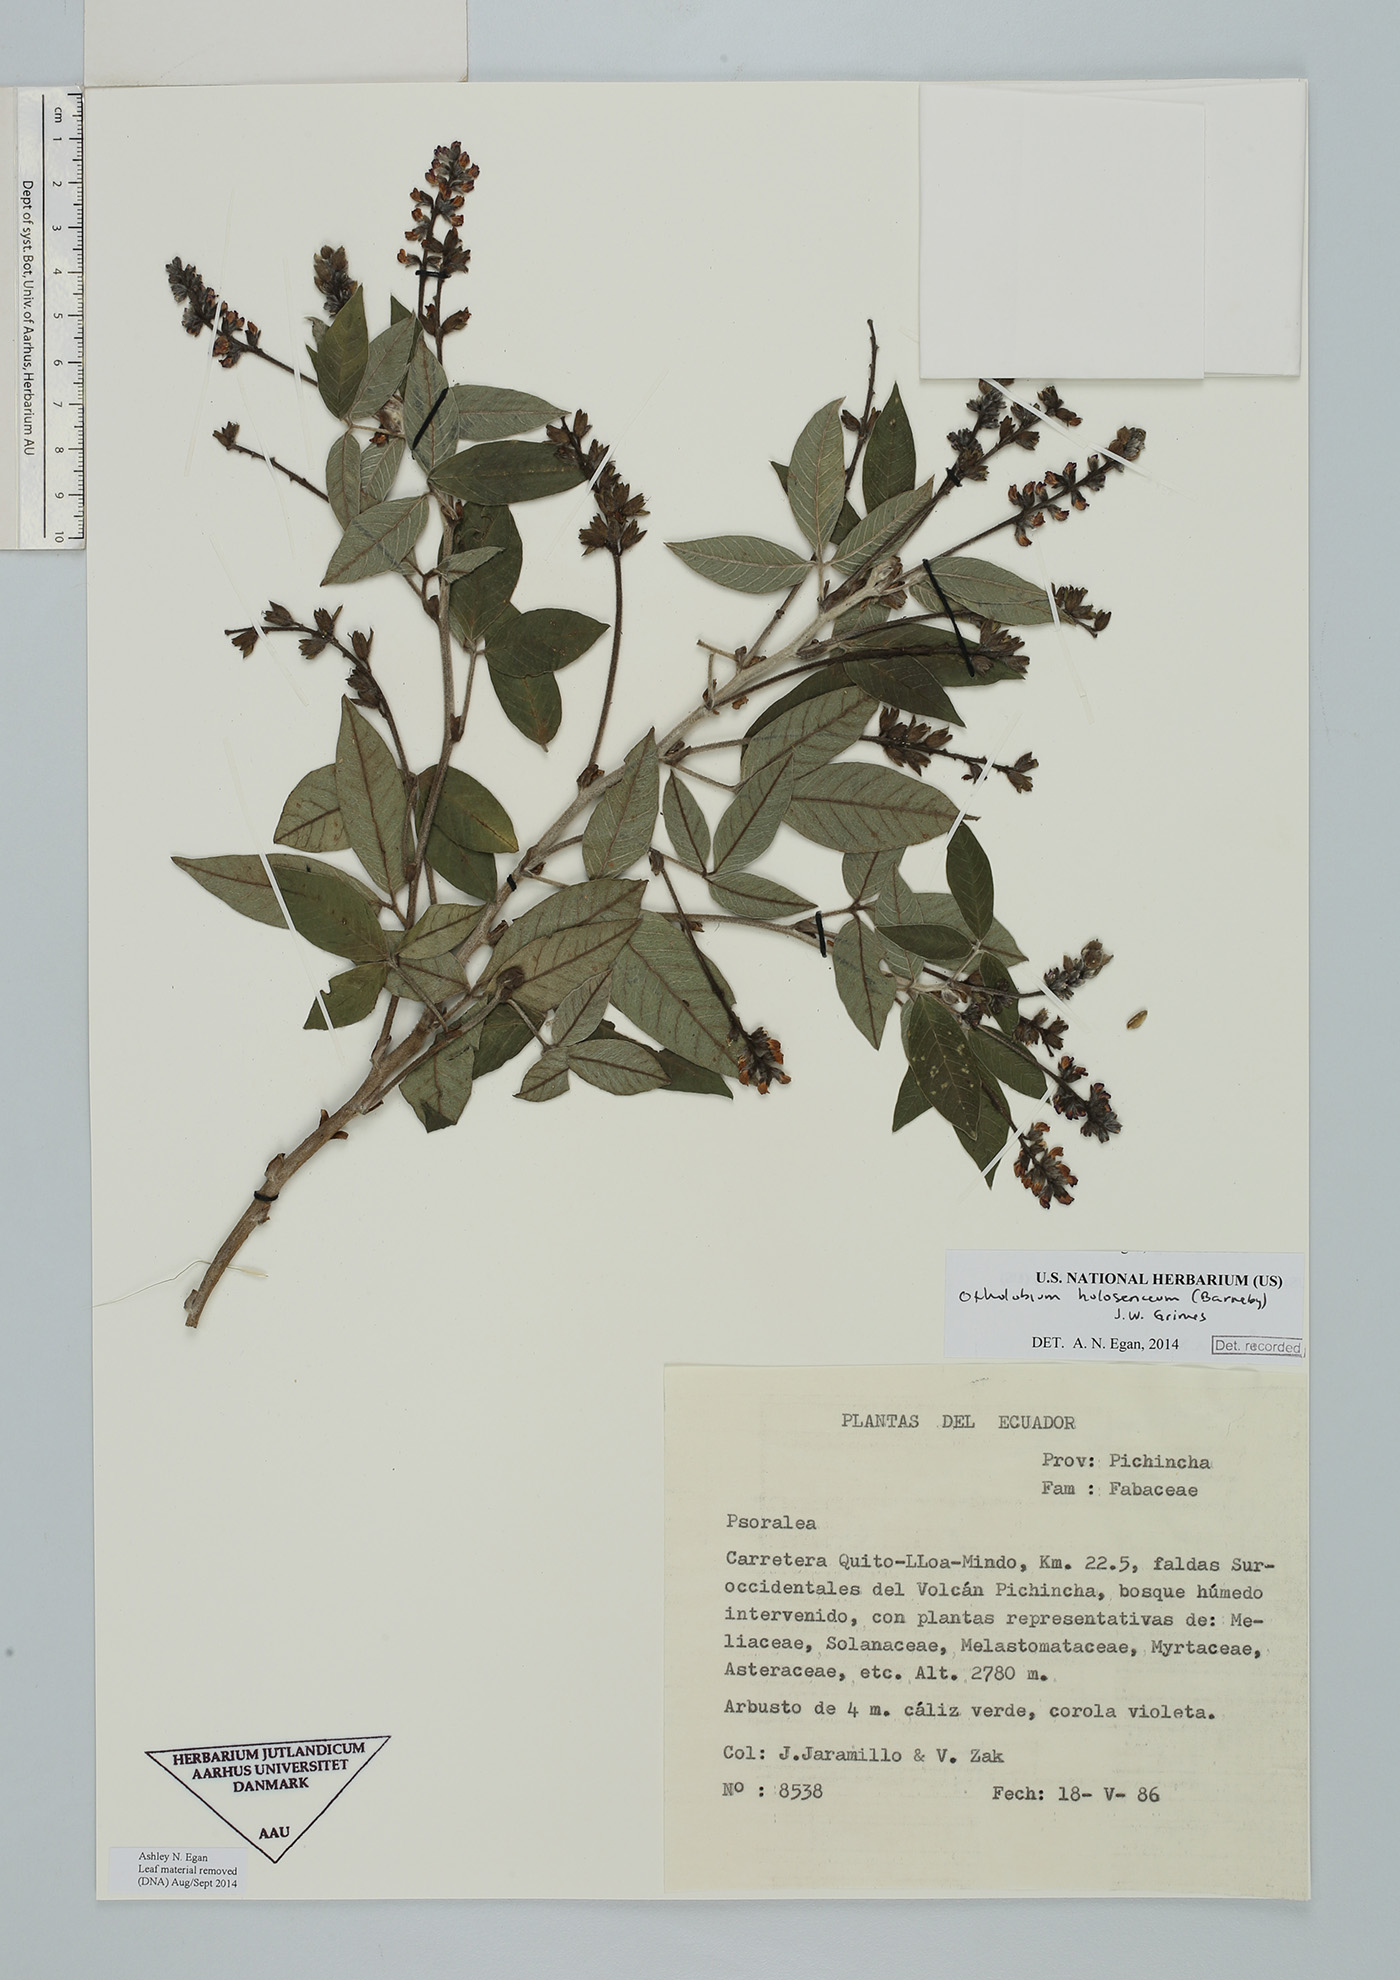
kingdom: Plantae
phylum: Tracheophyta
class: Magnoliopsida
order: Fabales
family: Fabaceae
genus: Psoralea
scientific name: Psoralea Otholobium holosericeum
